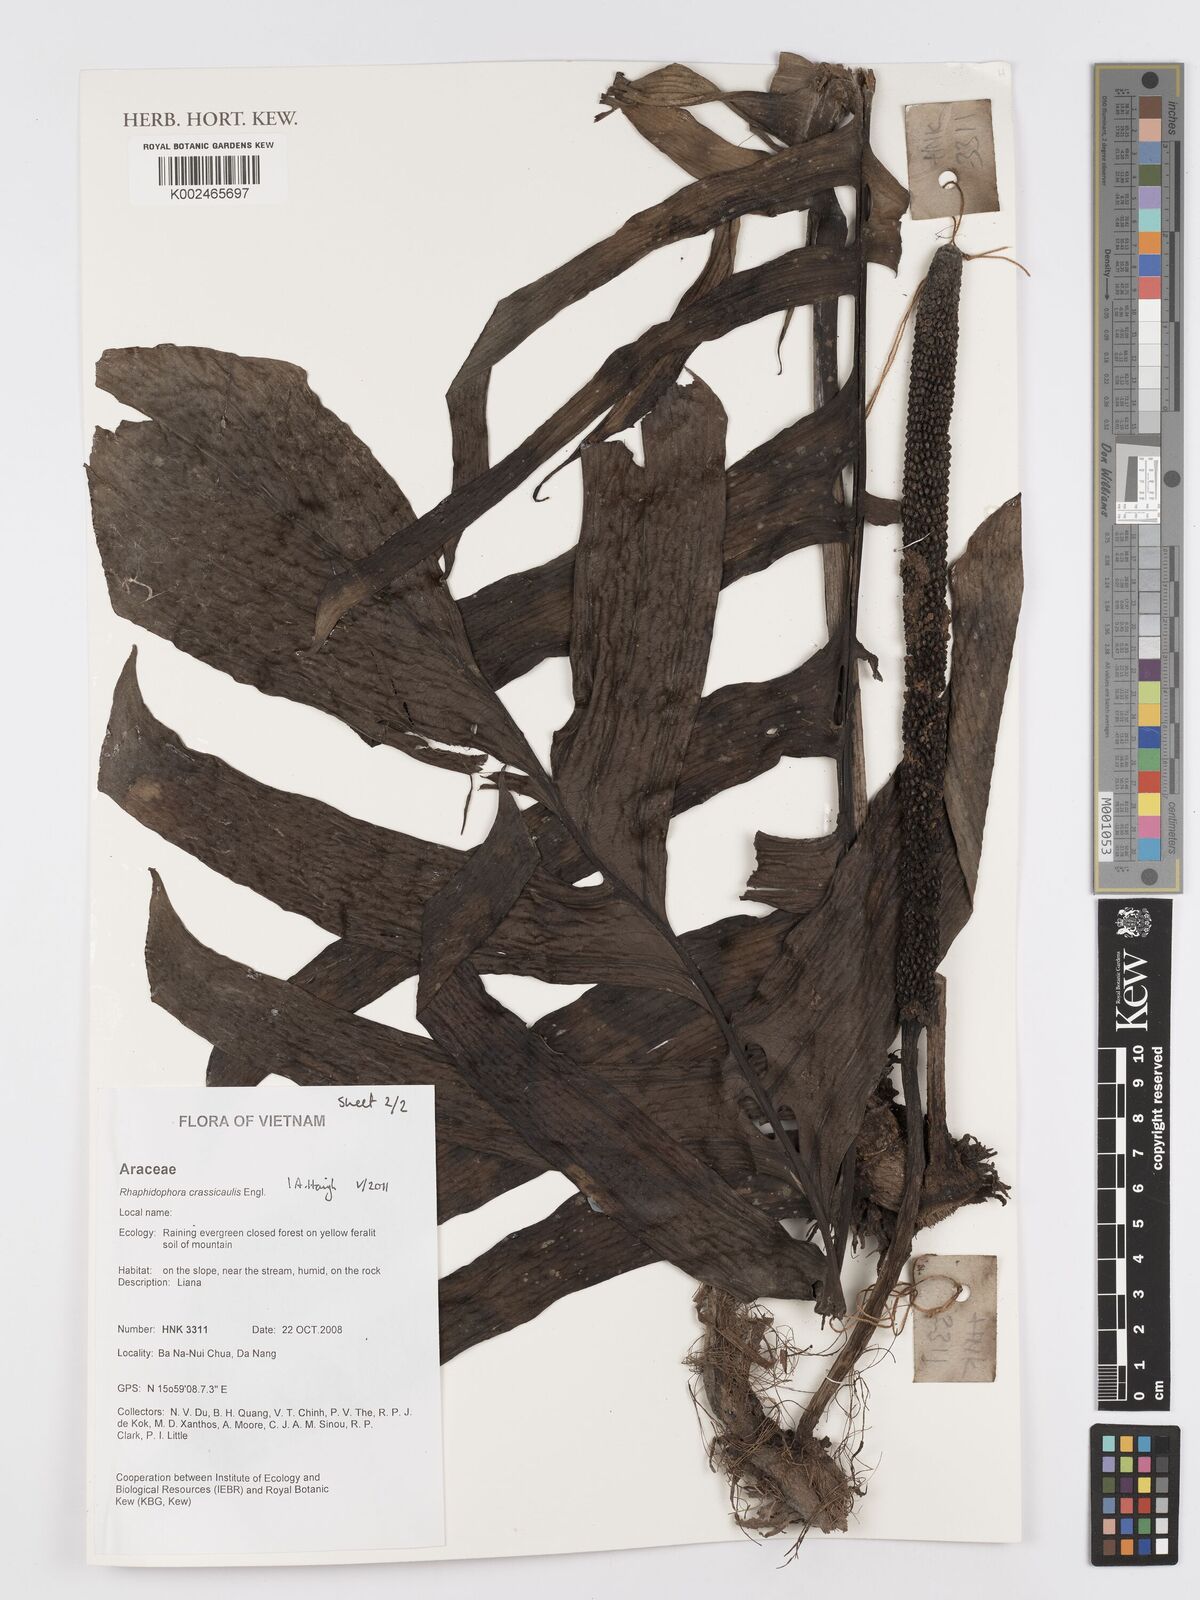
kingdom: Plantae
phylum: Tracheophyta
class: Liliopsida
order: Alismatales
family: Araceae
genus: Rhaphidophora
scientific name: Rhaphidophora crassicaulis
